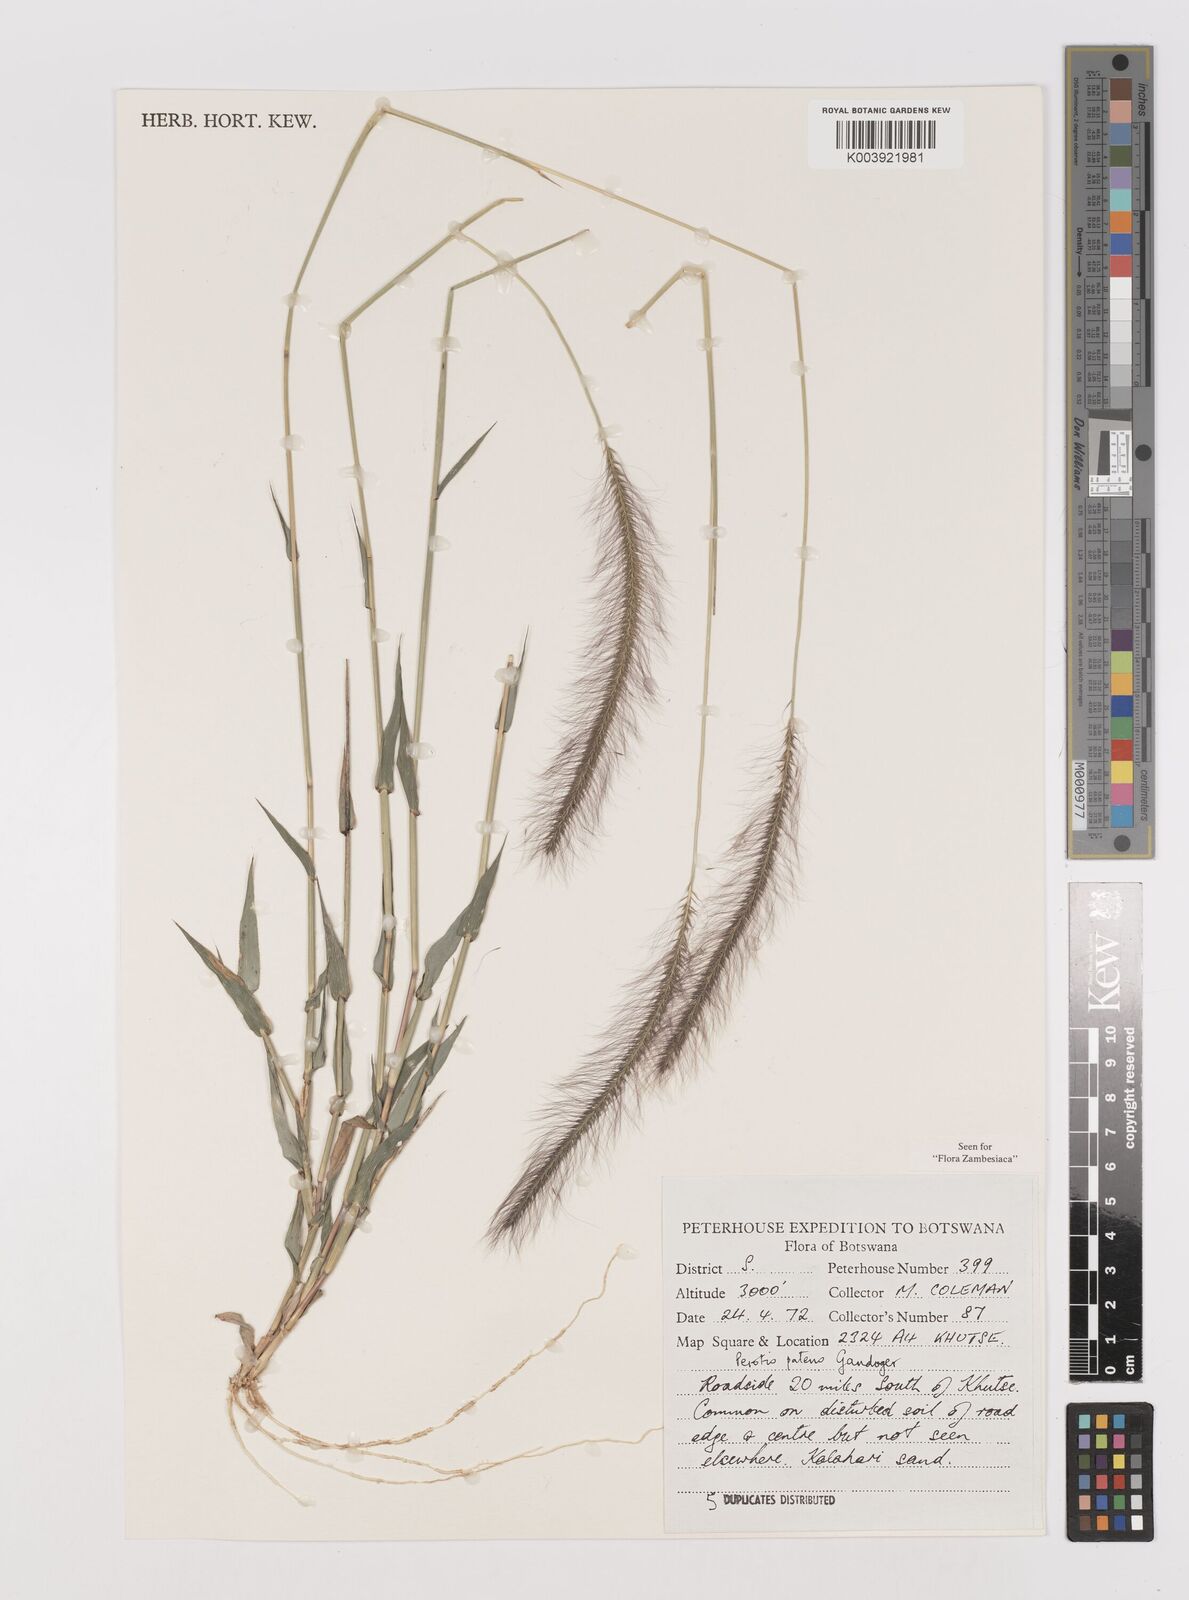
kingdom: Plantae
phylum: Tracheophyta
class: Liliopsida
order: Poales
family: Poaceae
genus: Perotis
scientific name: Perotis patens
